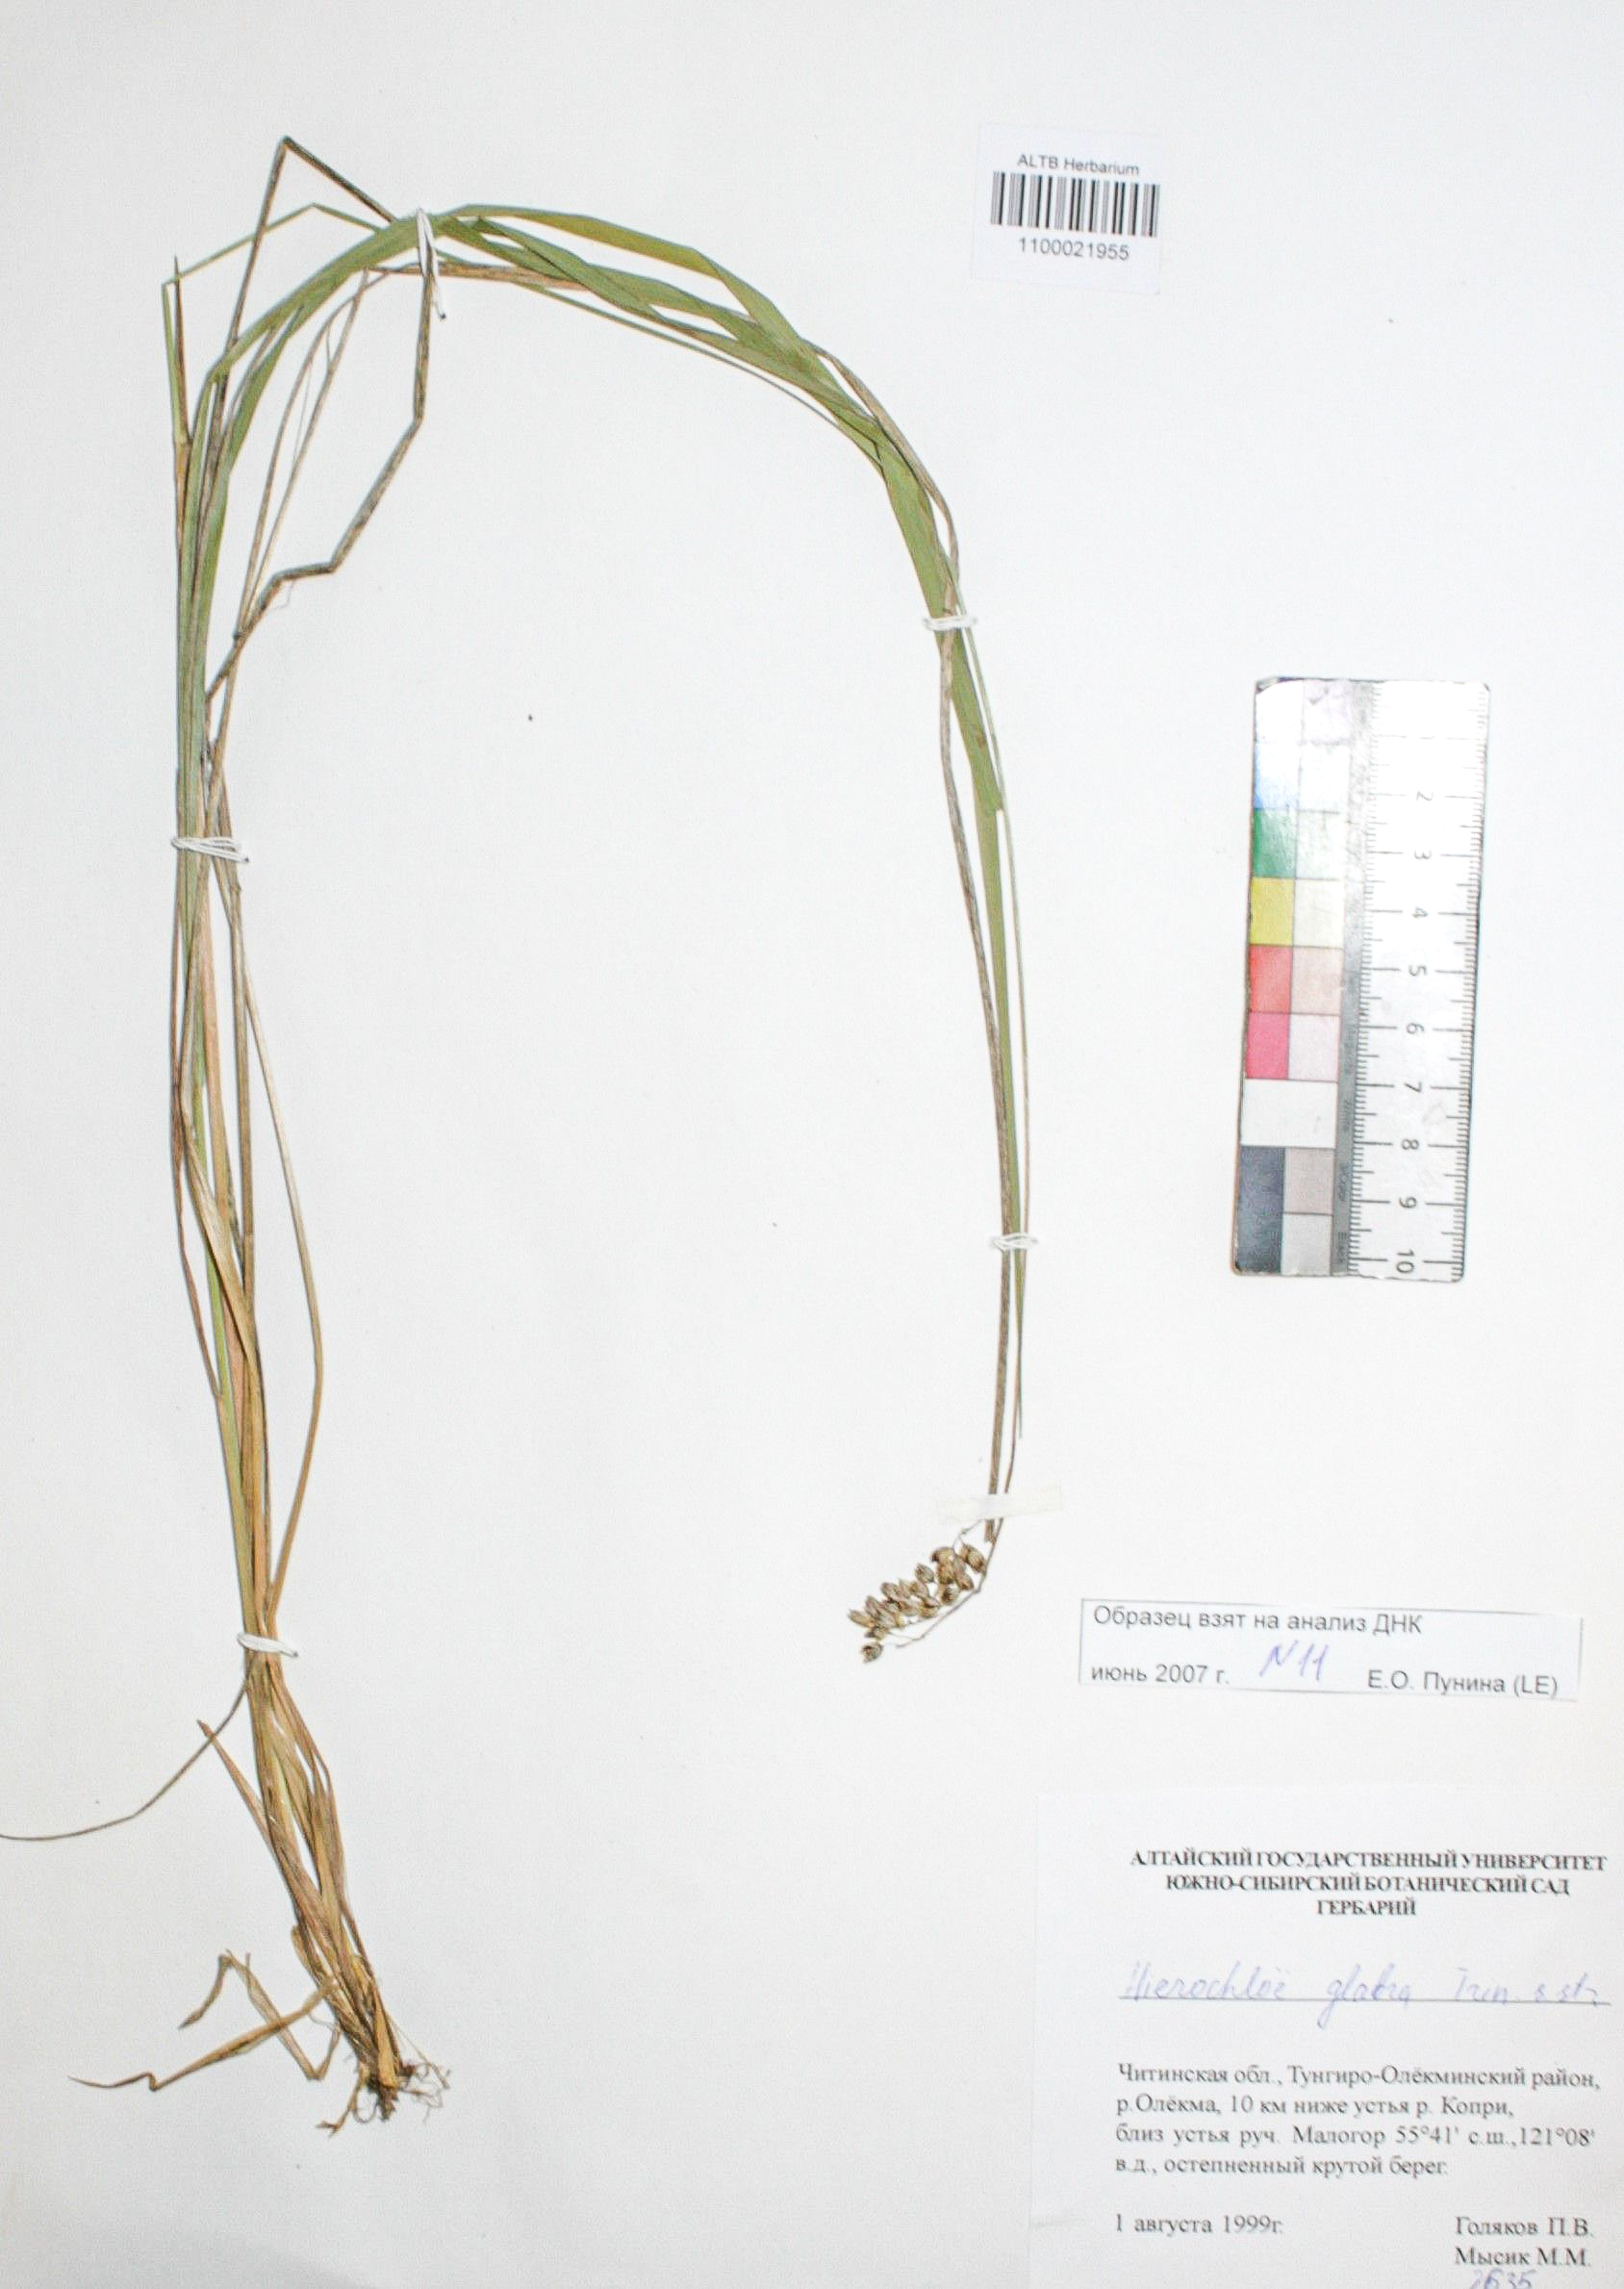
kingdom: Plantae
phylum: Tracheophyta
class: Liliopsida
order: Poales
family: Poaceae
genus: Anthoxanthum
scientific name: Anthoxanthum glabrum
